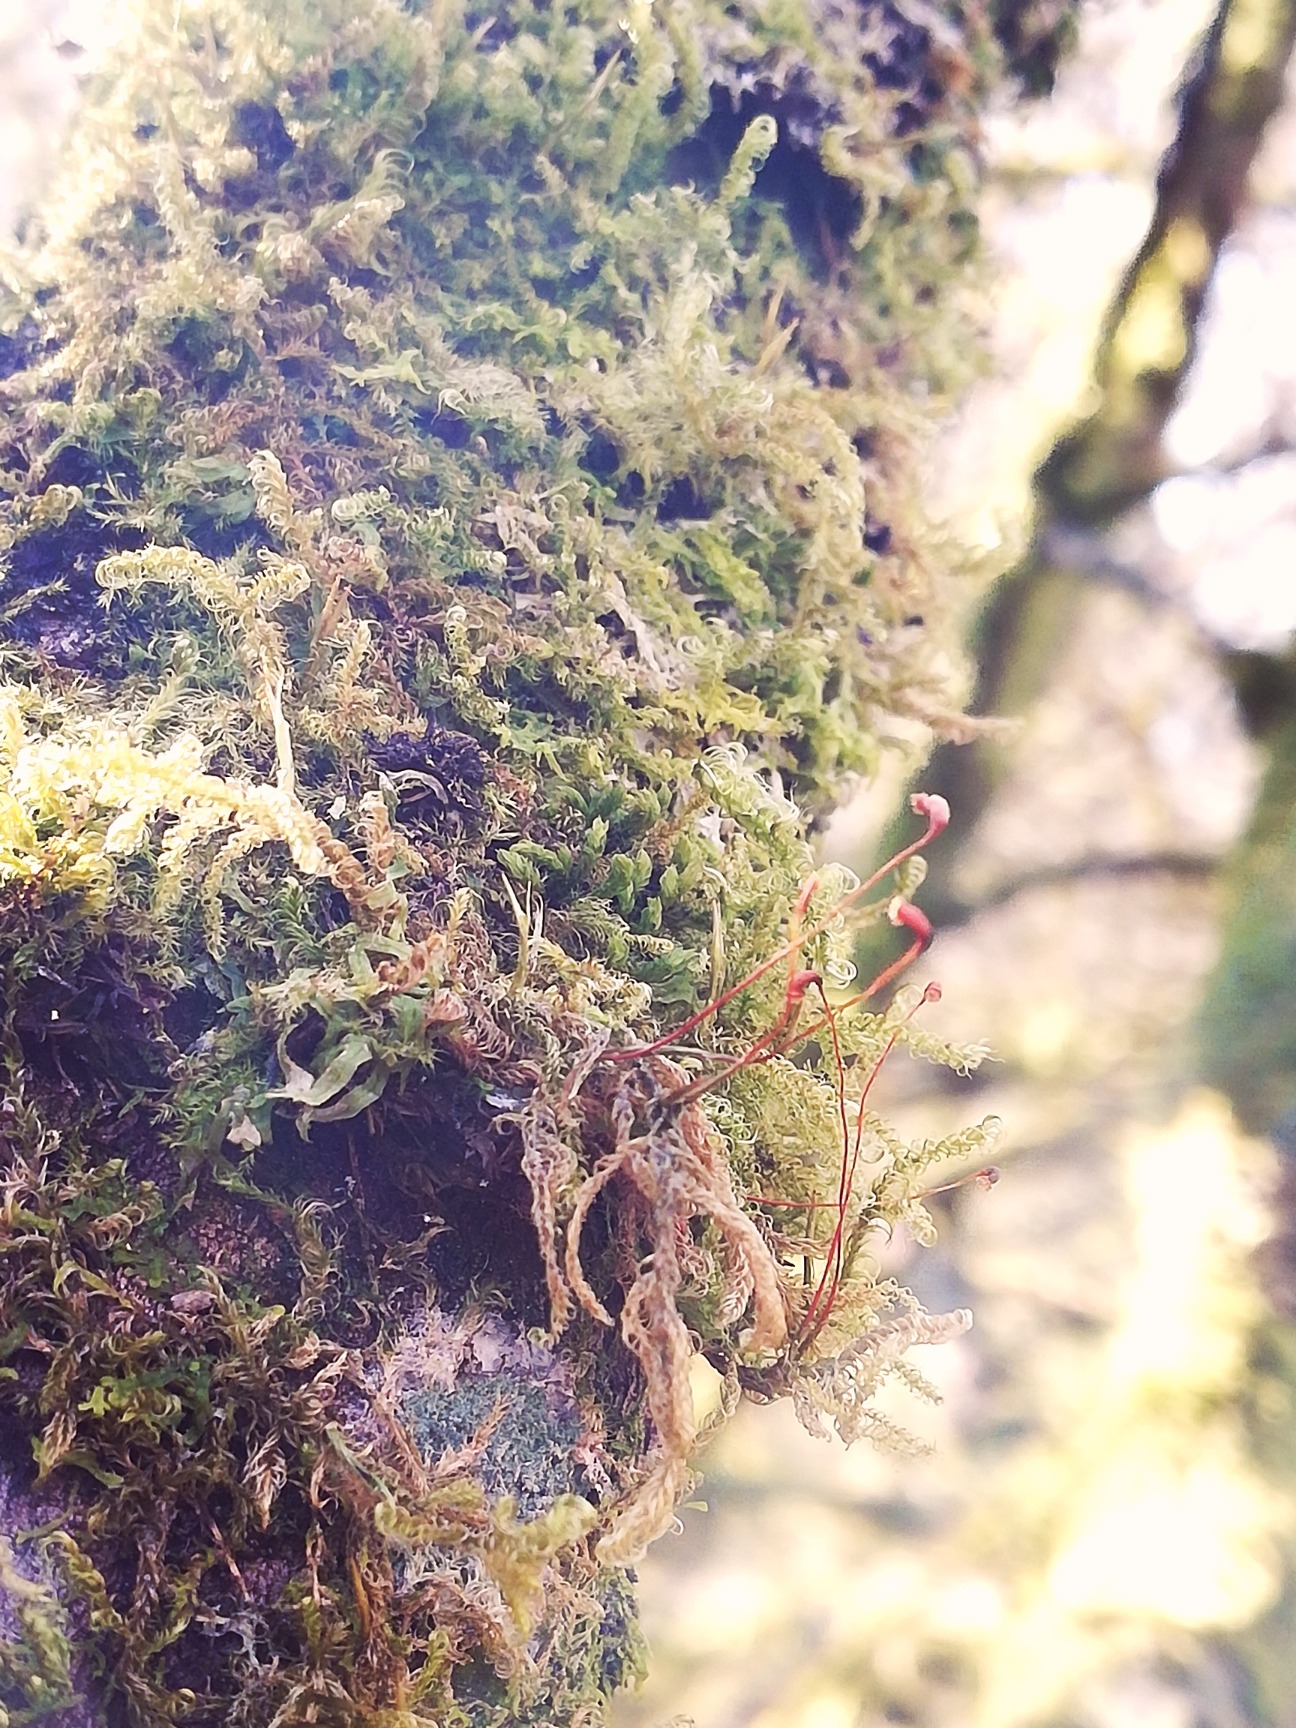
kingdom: Plantae
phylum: Bryophyta
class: Bryopsida
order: Hypnales
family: Scorpidiaceae
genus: Sanionia
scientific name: Sanionia uncinata
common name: Stribet krogblad
